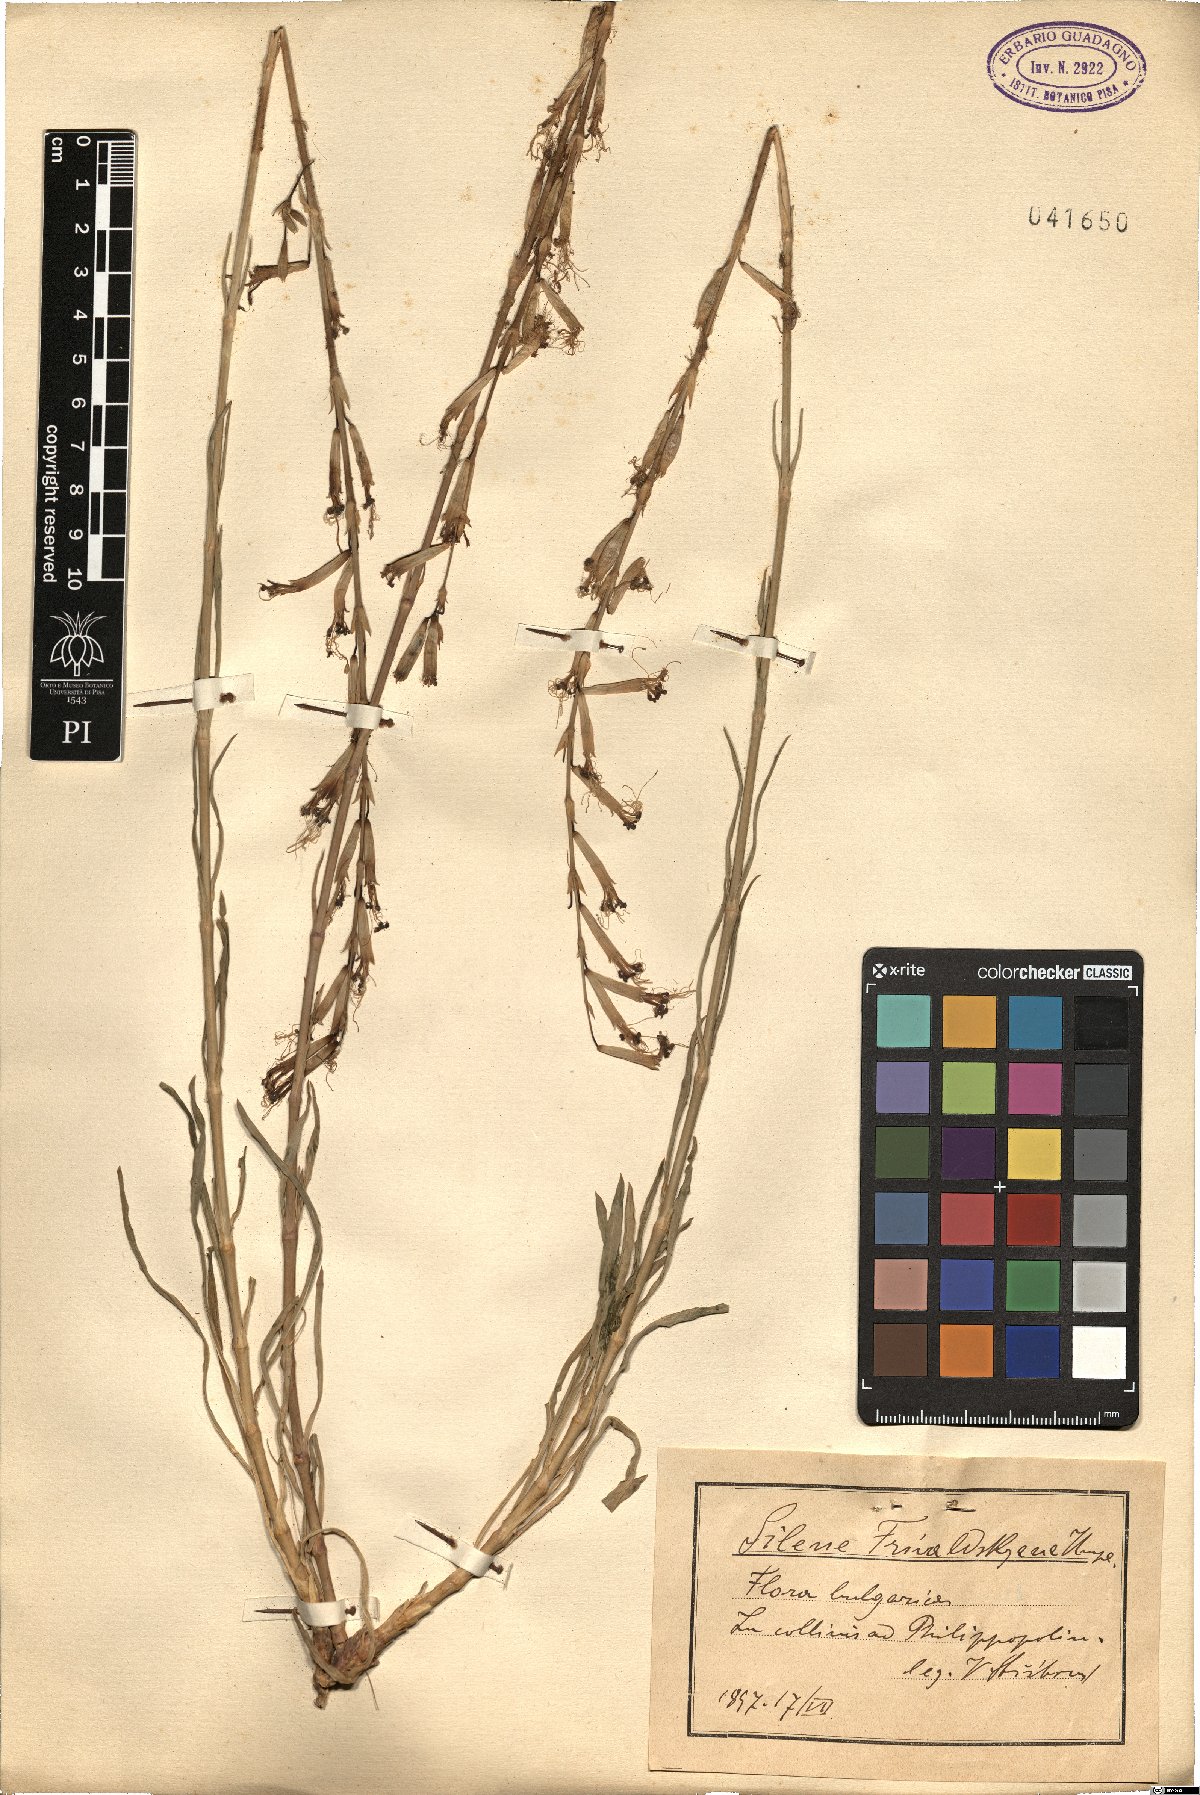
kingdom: Plantae
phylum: Tracheophyta
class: Magnoliopsida
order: Caryophyllales
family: Caryophyllaceae
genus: Silene
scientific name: Silene frivaldszkyana
